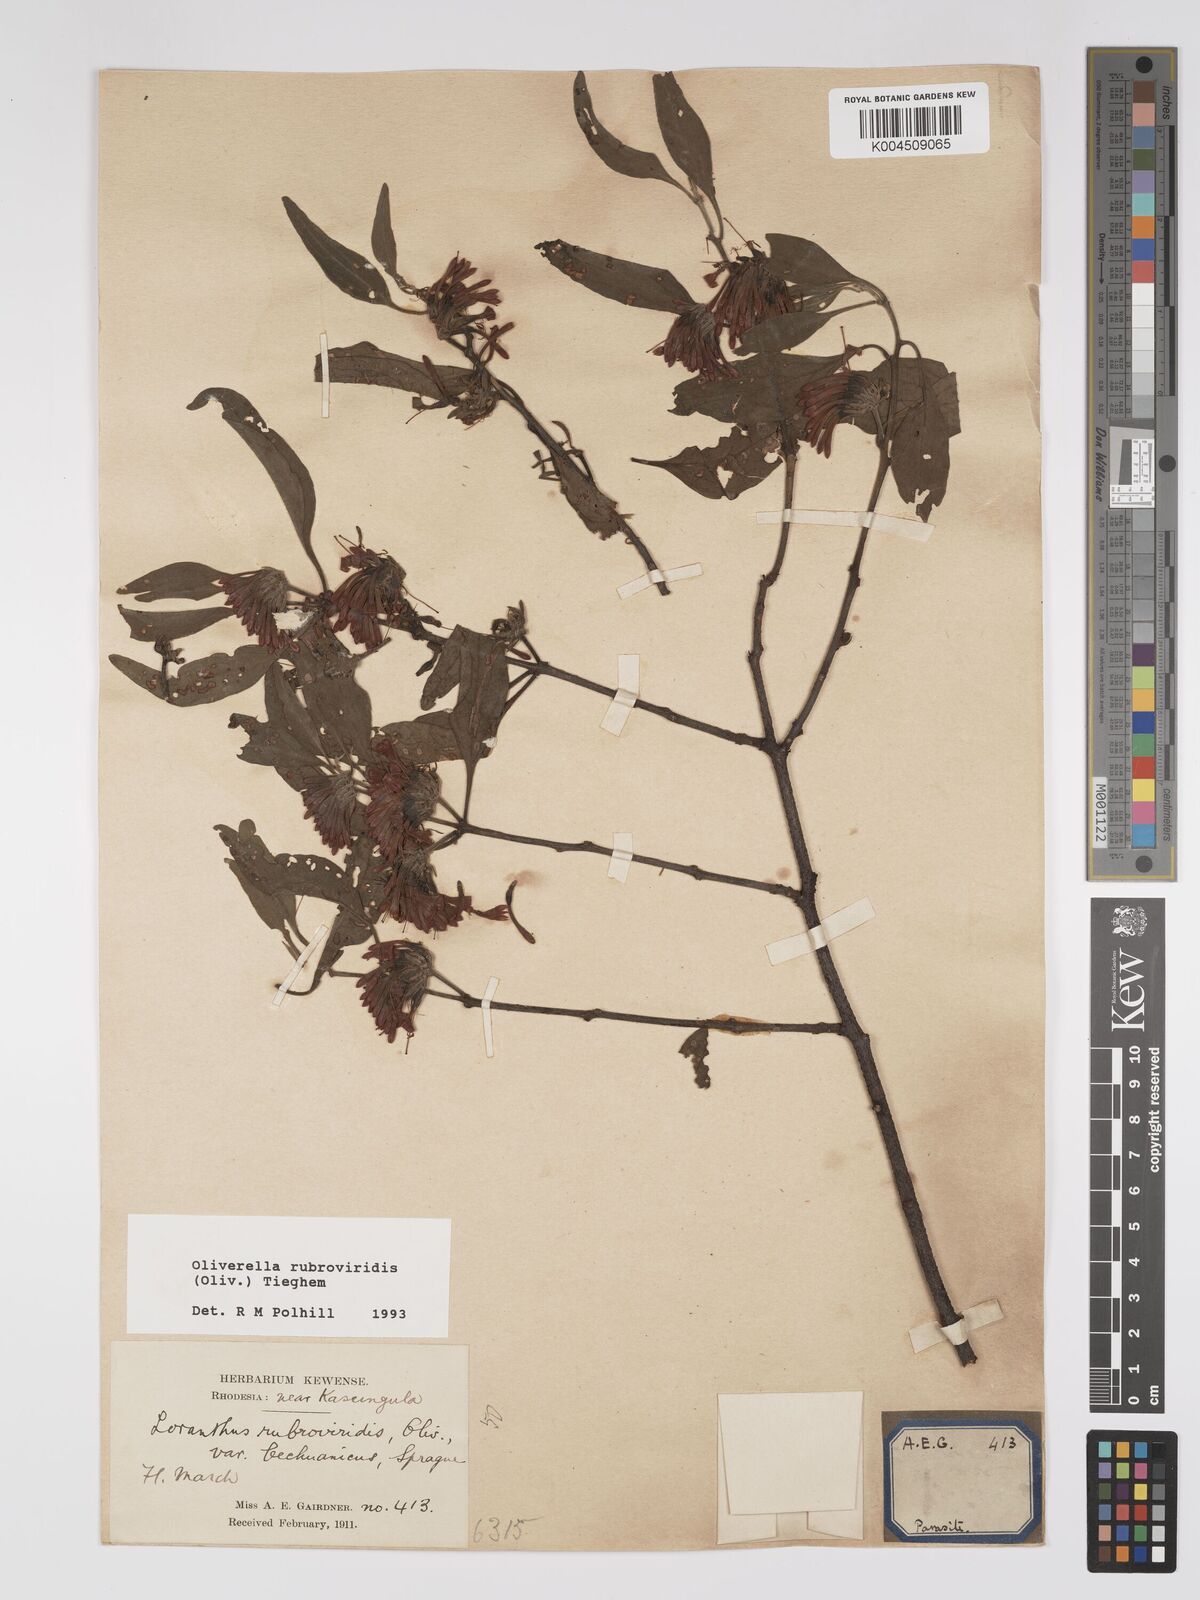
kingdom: Plantae
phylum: Tracheophyta
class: Magnoliopsida
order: Santalales
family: Loranthaceae
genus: Oliverella
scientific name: Oliverella rubroviridis
